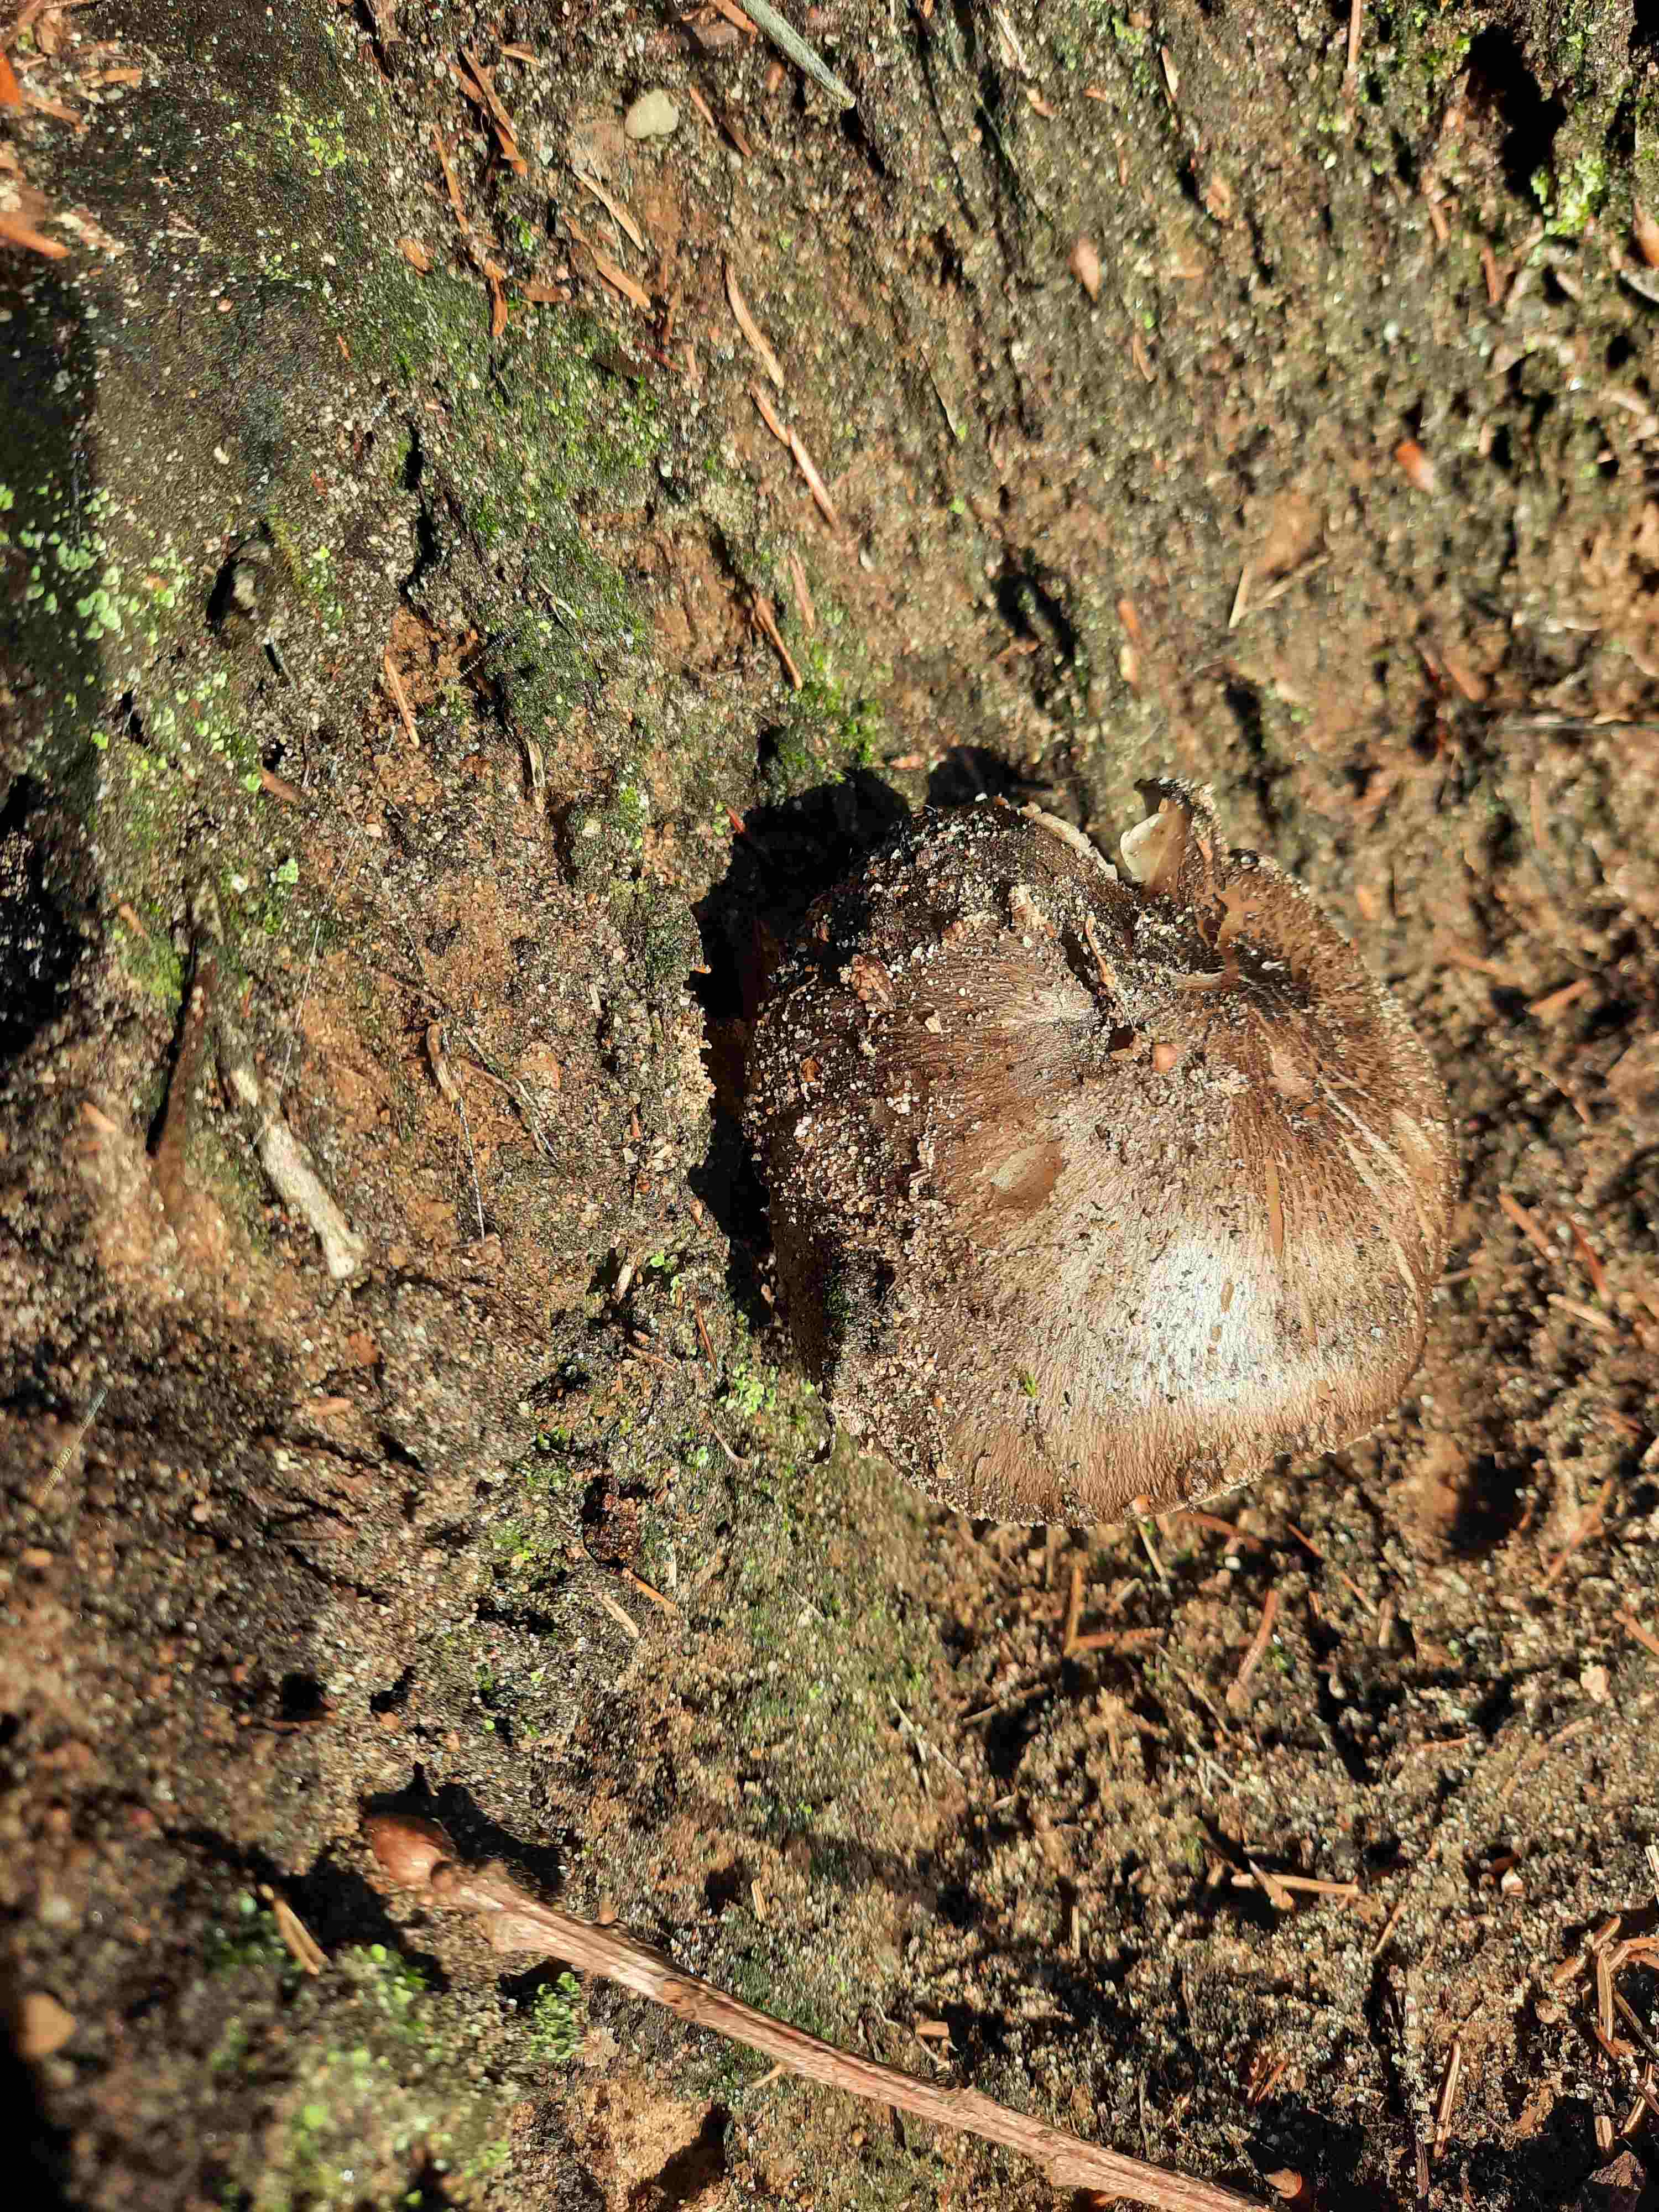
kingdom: Fungi
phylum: Basidiomycota
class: Agaricomycetes
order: Agaricales
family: Tricholomataceae
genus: Tricholoma
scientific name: Tricholoma portentosum
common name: grå ridderhat
